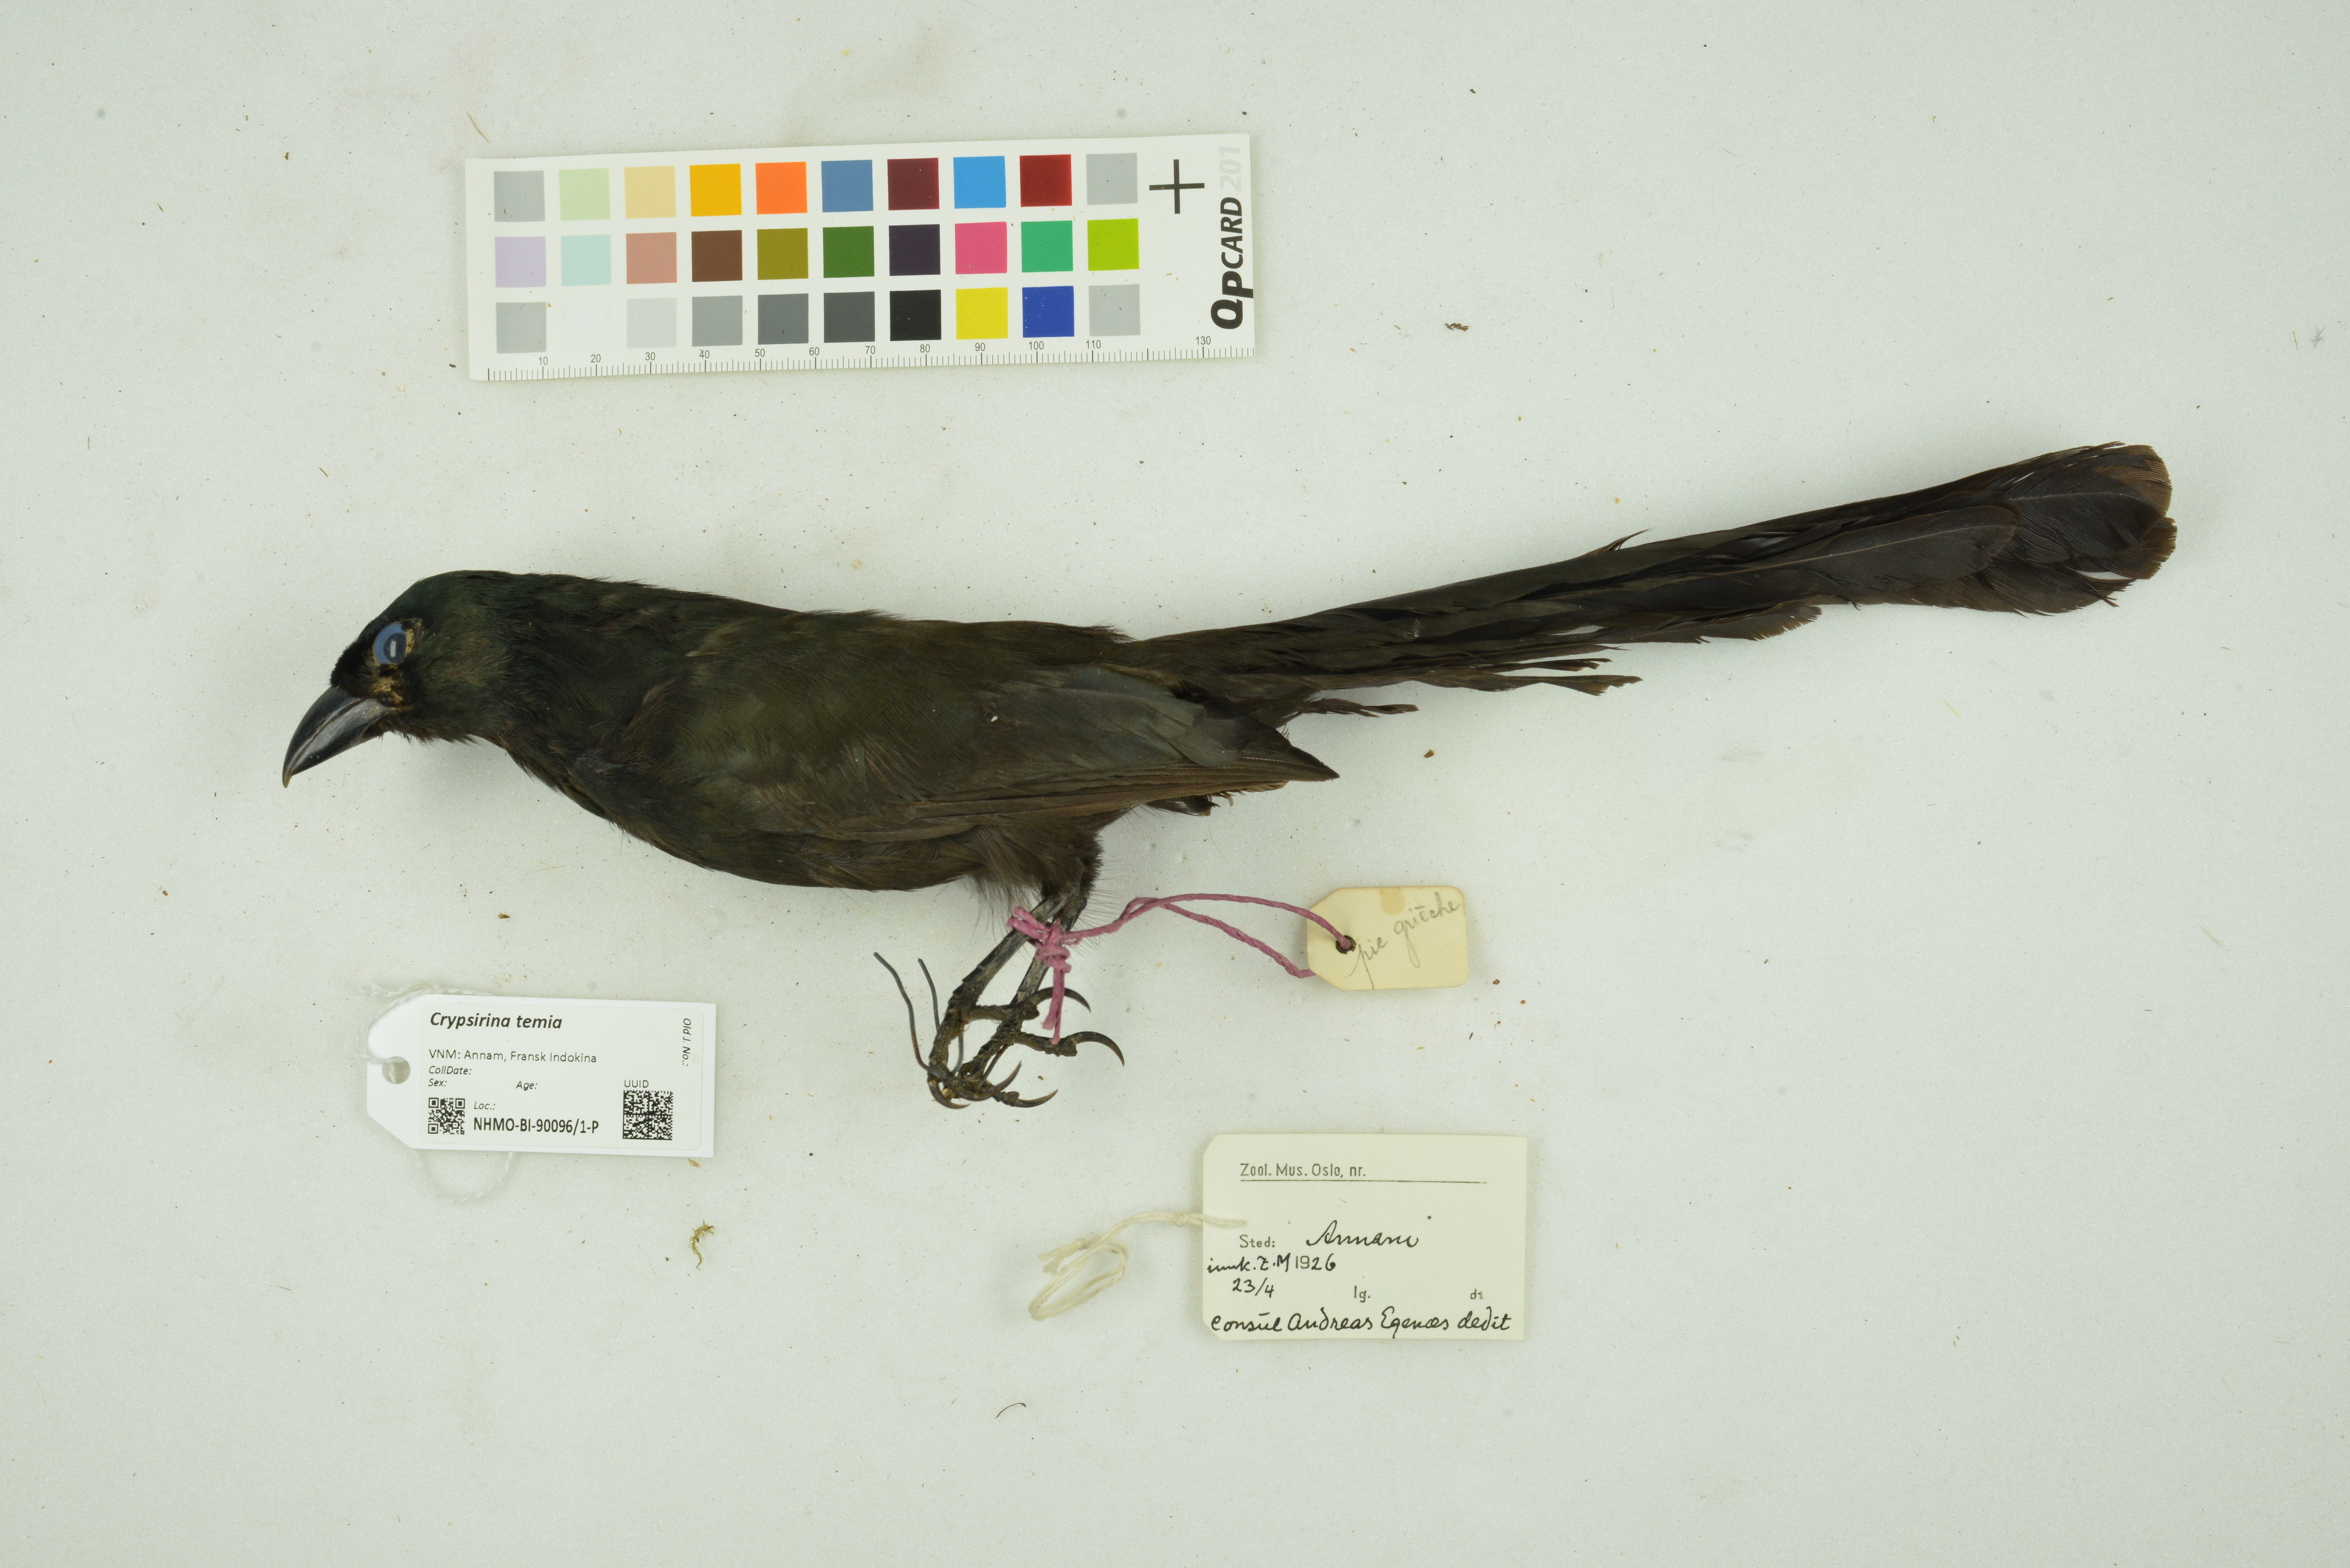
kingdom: Animalia
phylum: Chordata
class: Aves
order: Passeriformes
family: Corvidae
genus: Crypsirina
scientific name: Crypsirina temia
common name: Racket-tailed treepie
